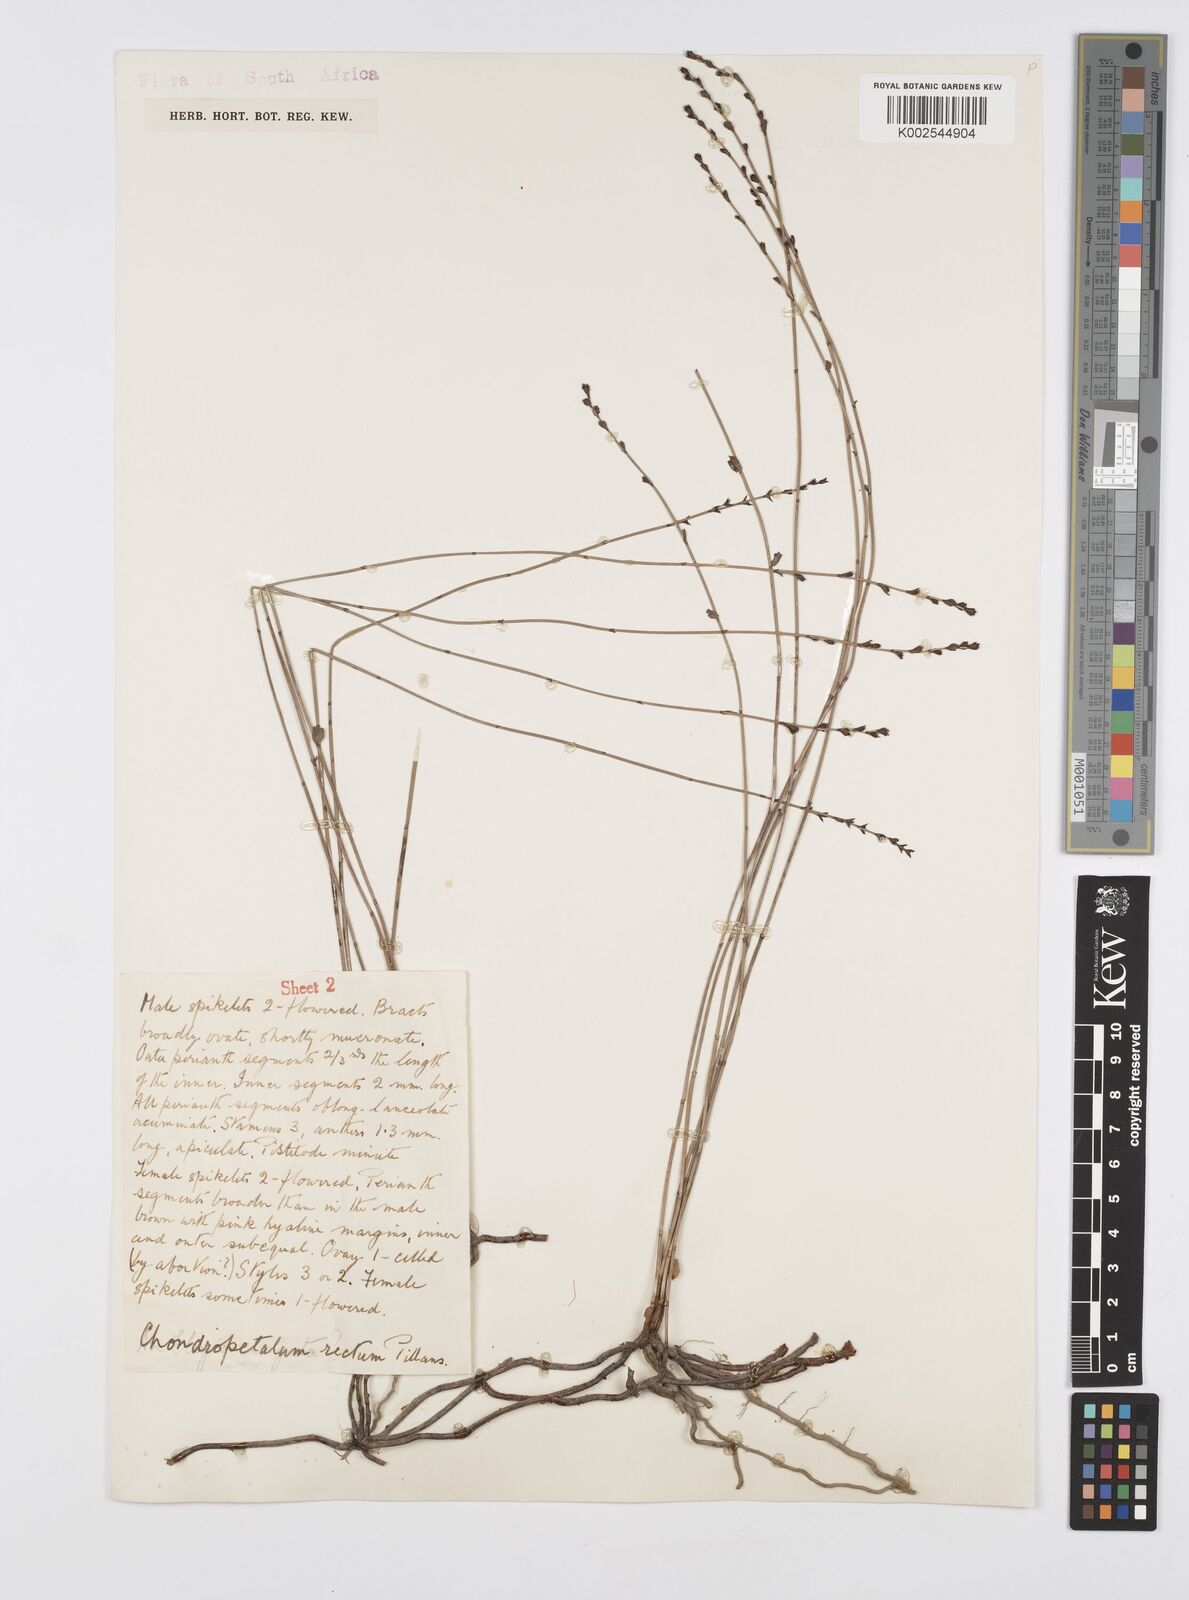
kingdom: Plantae
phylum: Tracheophyta
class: Liliopsida
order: Poales
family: Restionaceae
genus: Elegia
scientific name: Elegia recta
